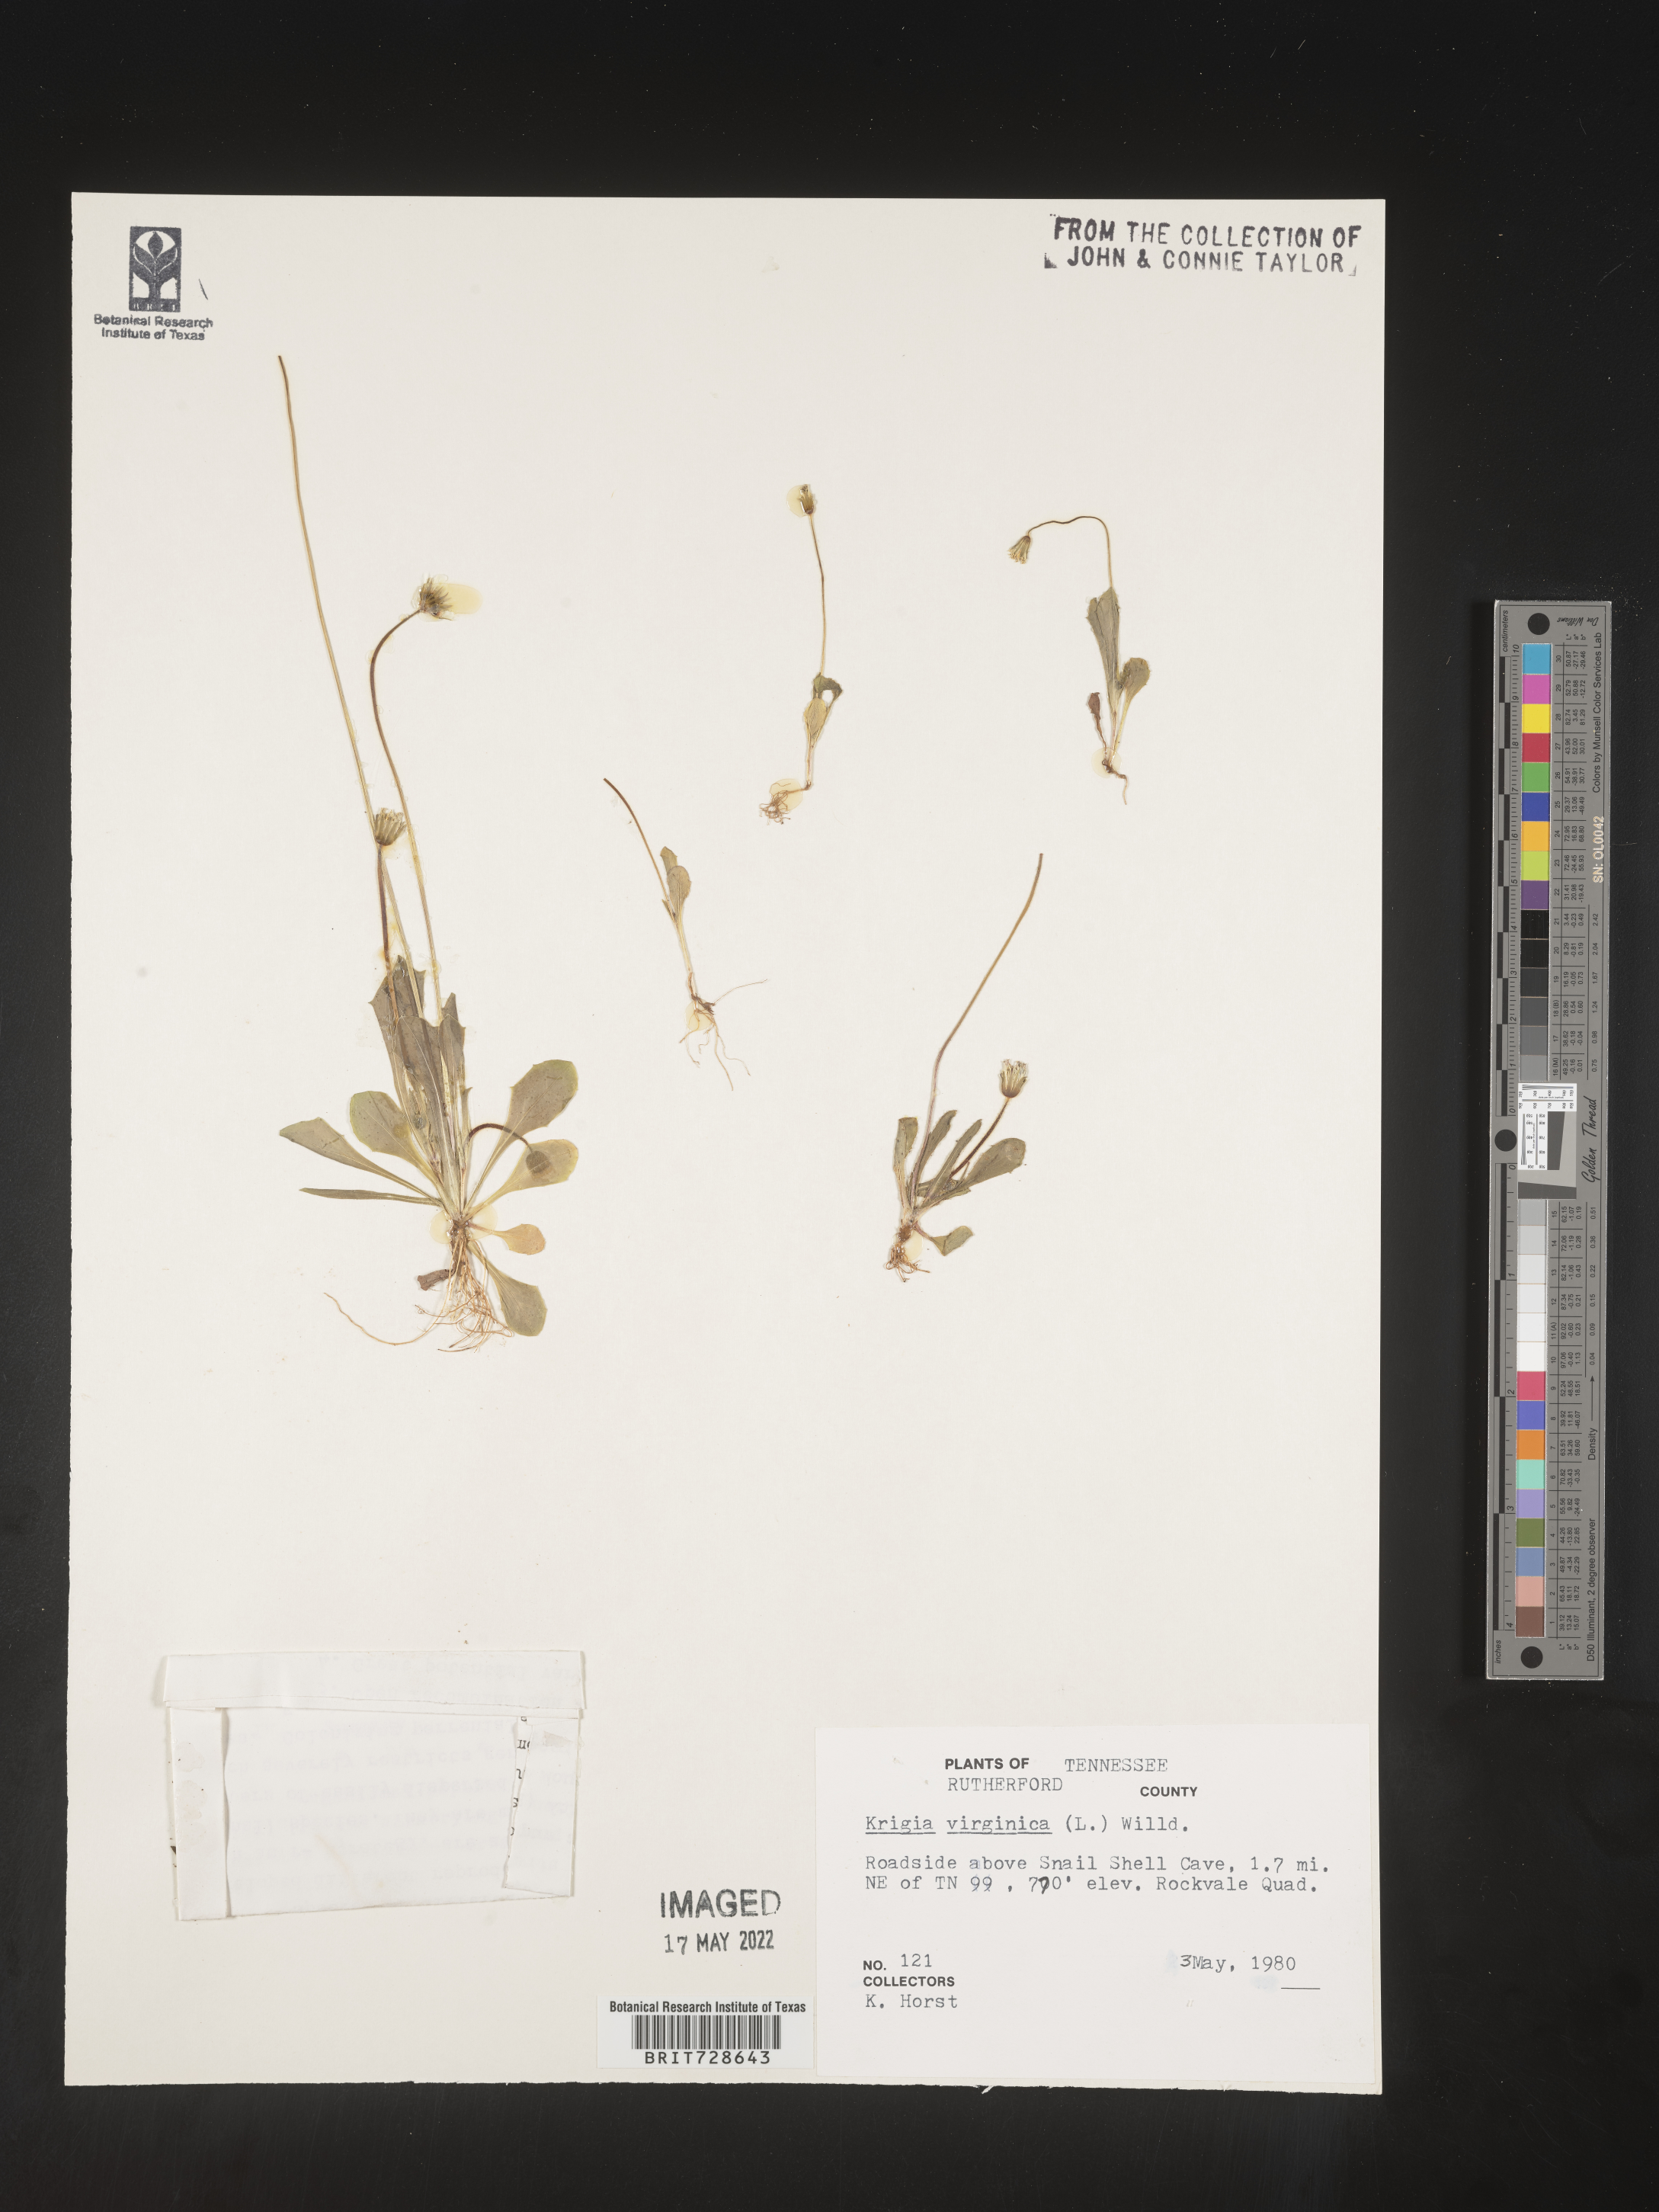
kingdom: Plantae
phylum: Tracheophyta
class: Magnoliopsida
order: Asterales
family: Asteraceae
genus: Krigia
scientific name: Krigia virginica
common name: Virginia dwarf-dandelion
